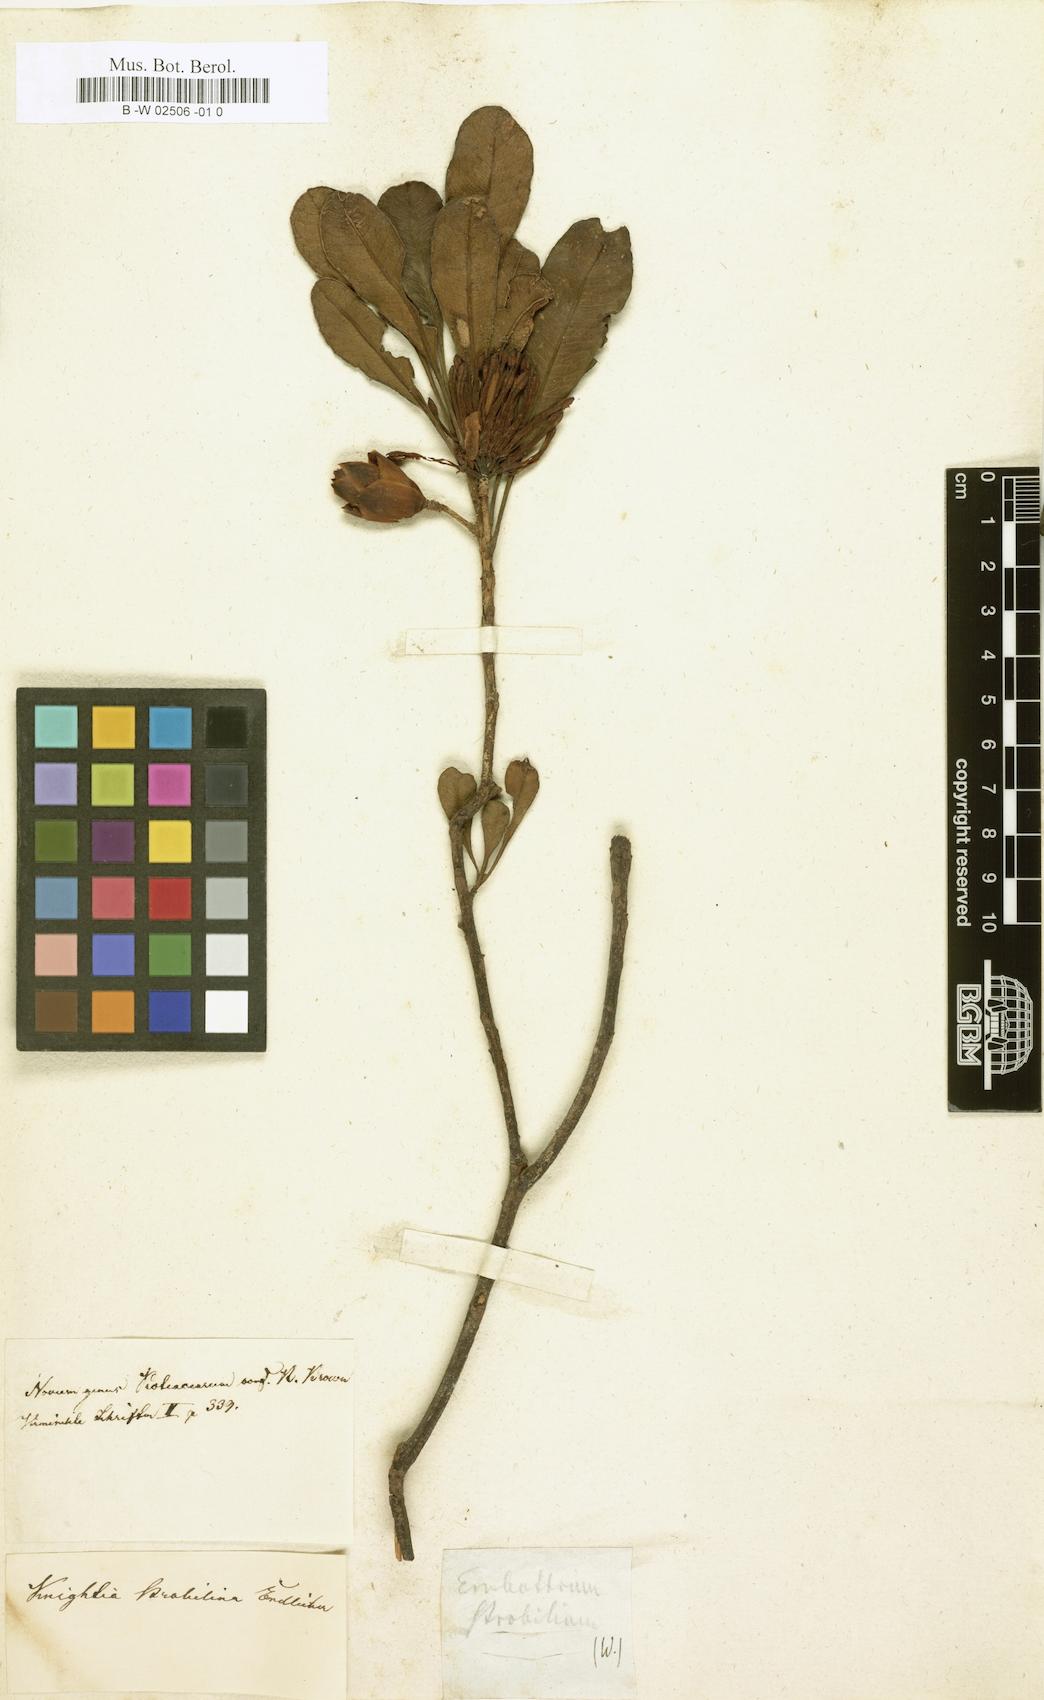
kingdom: Plantae
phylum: Tracheophyta
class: Magnoliopsida
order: Proteales
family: Proteaceae
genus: Eucarpha
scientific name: Eucarpha strobilina
